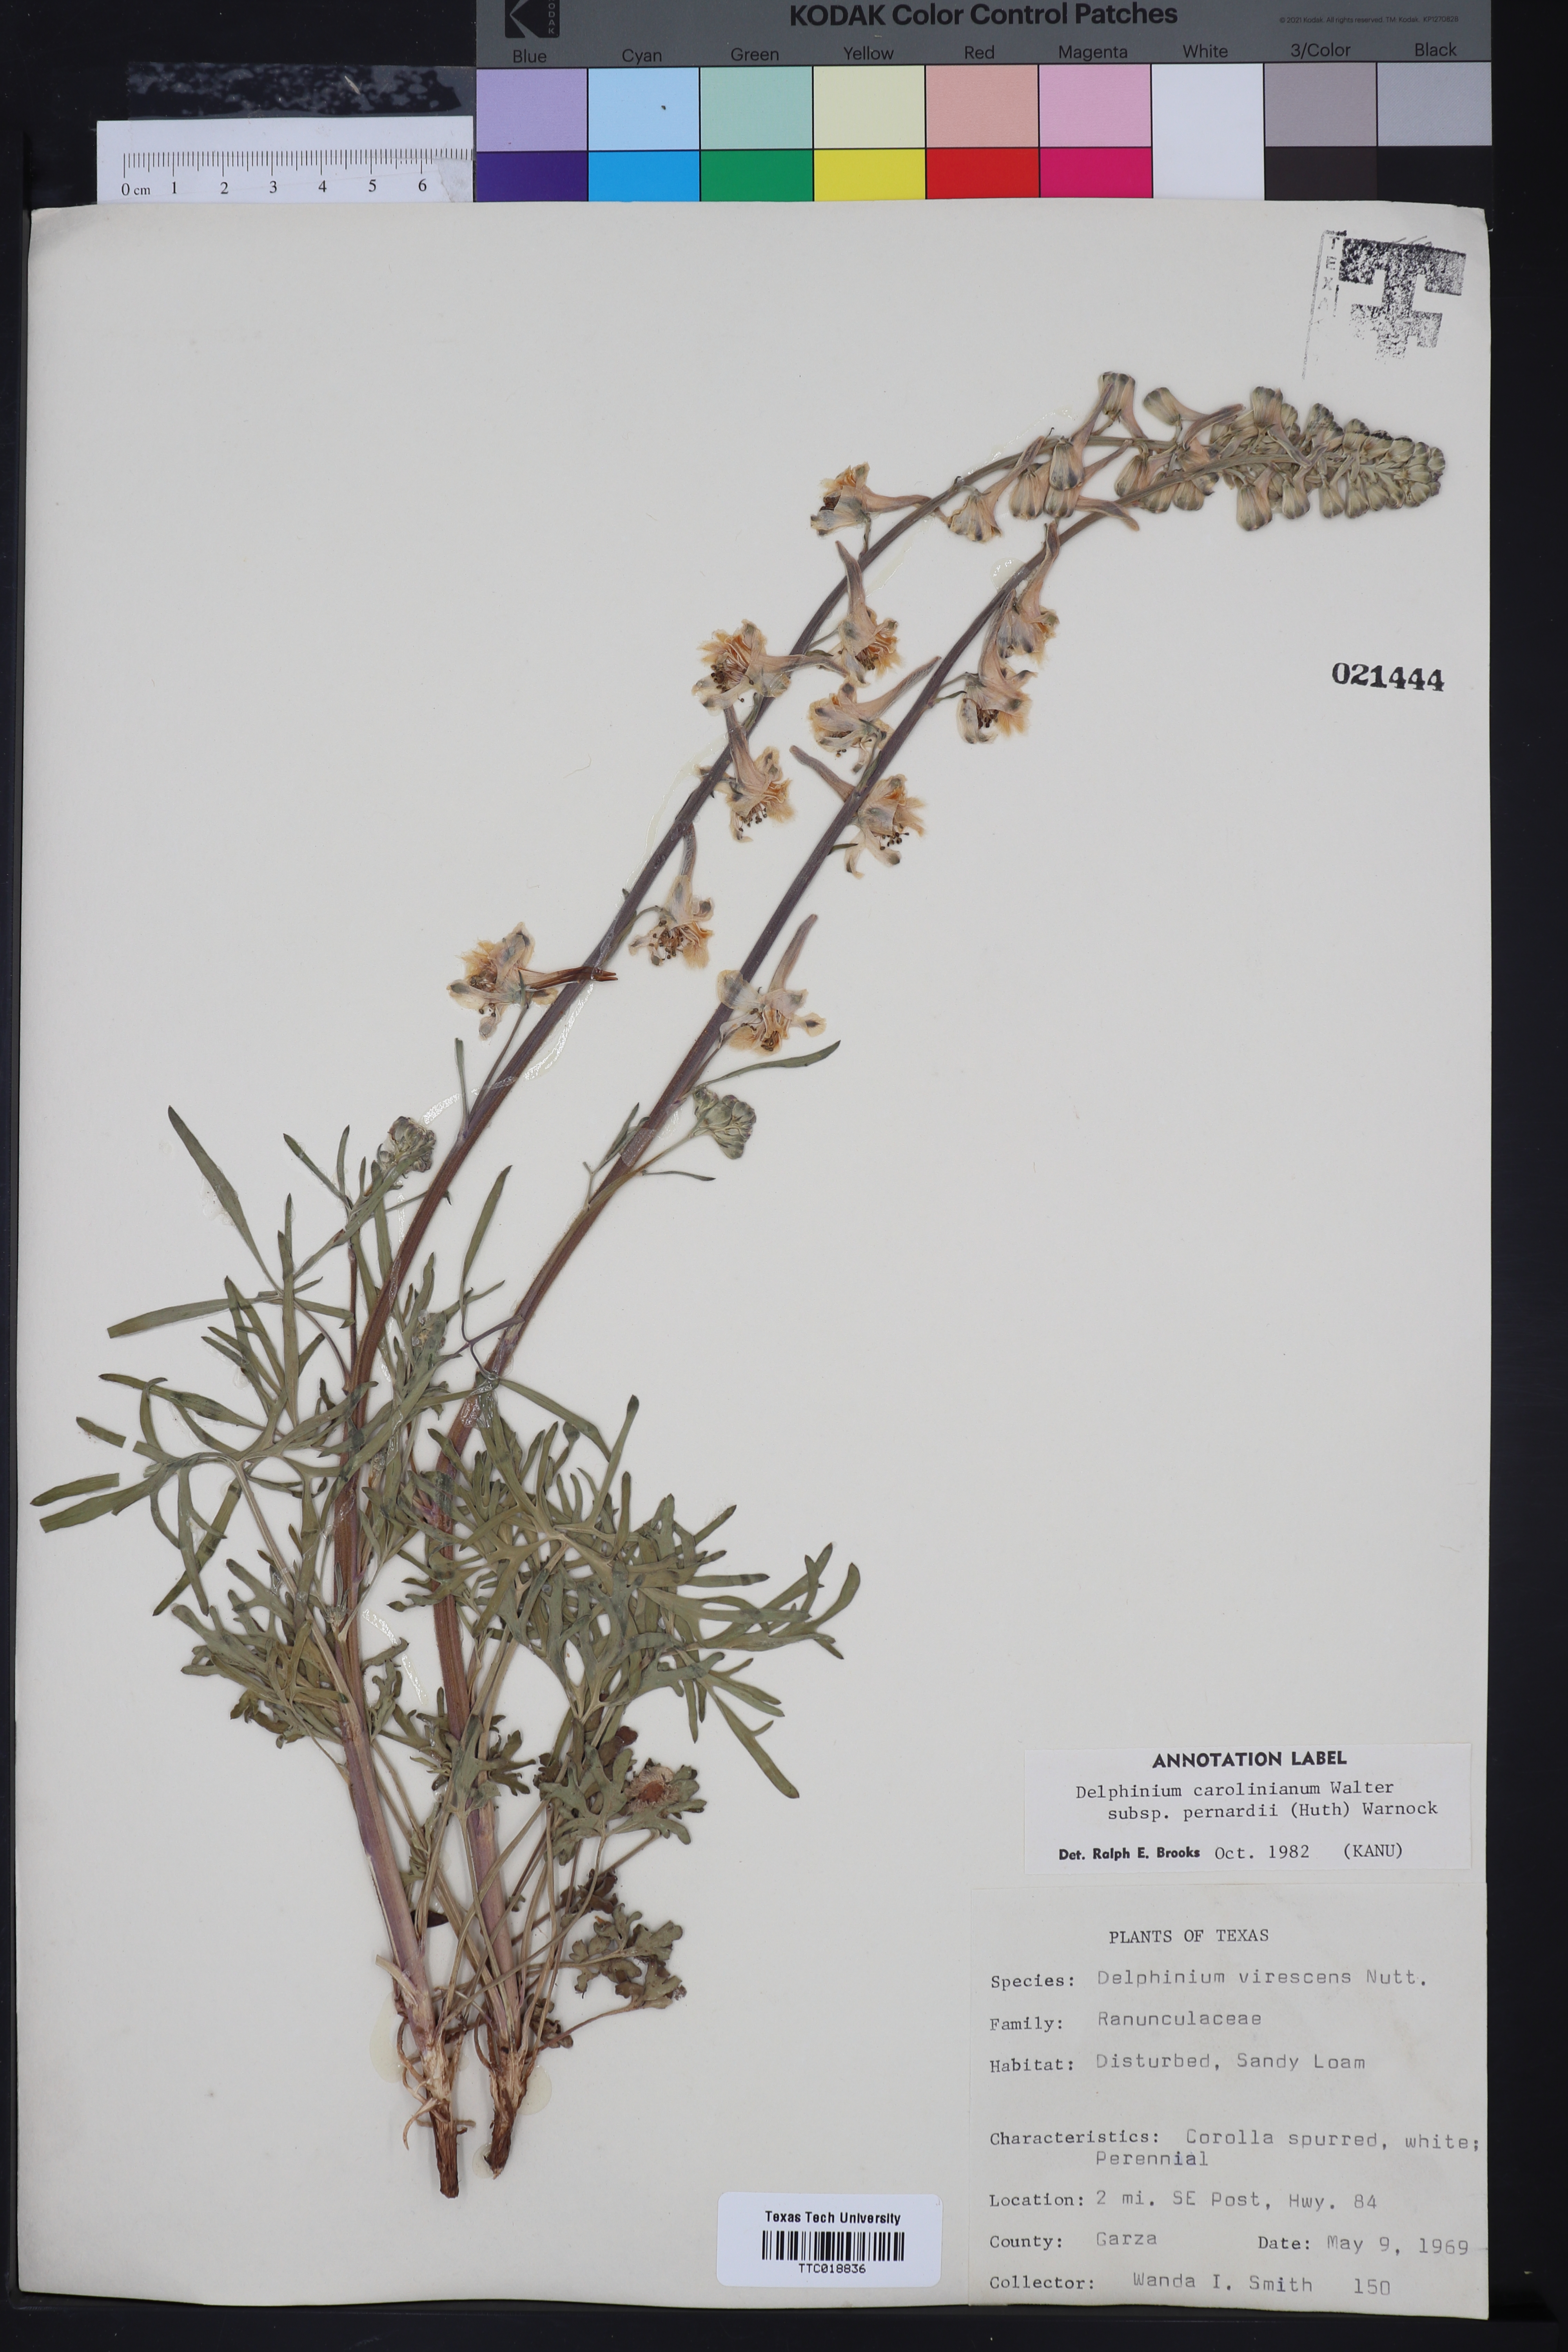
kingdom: Plantae
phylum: Tracheophyta
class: Magnoliopsida
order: Ranunculales
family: Ranunculaceae
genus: Delphinium
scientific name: Delphinium carolinianum
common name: Carolina larkspur
